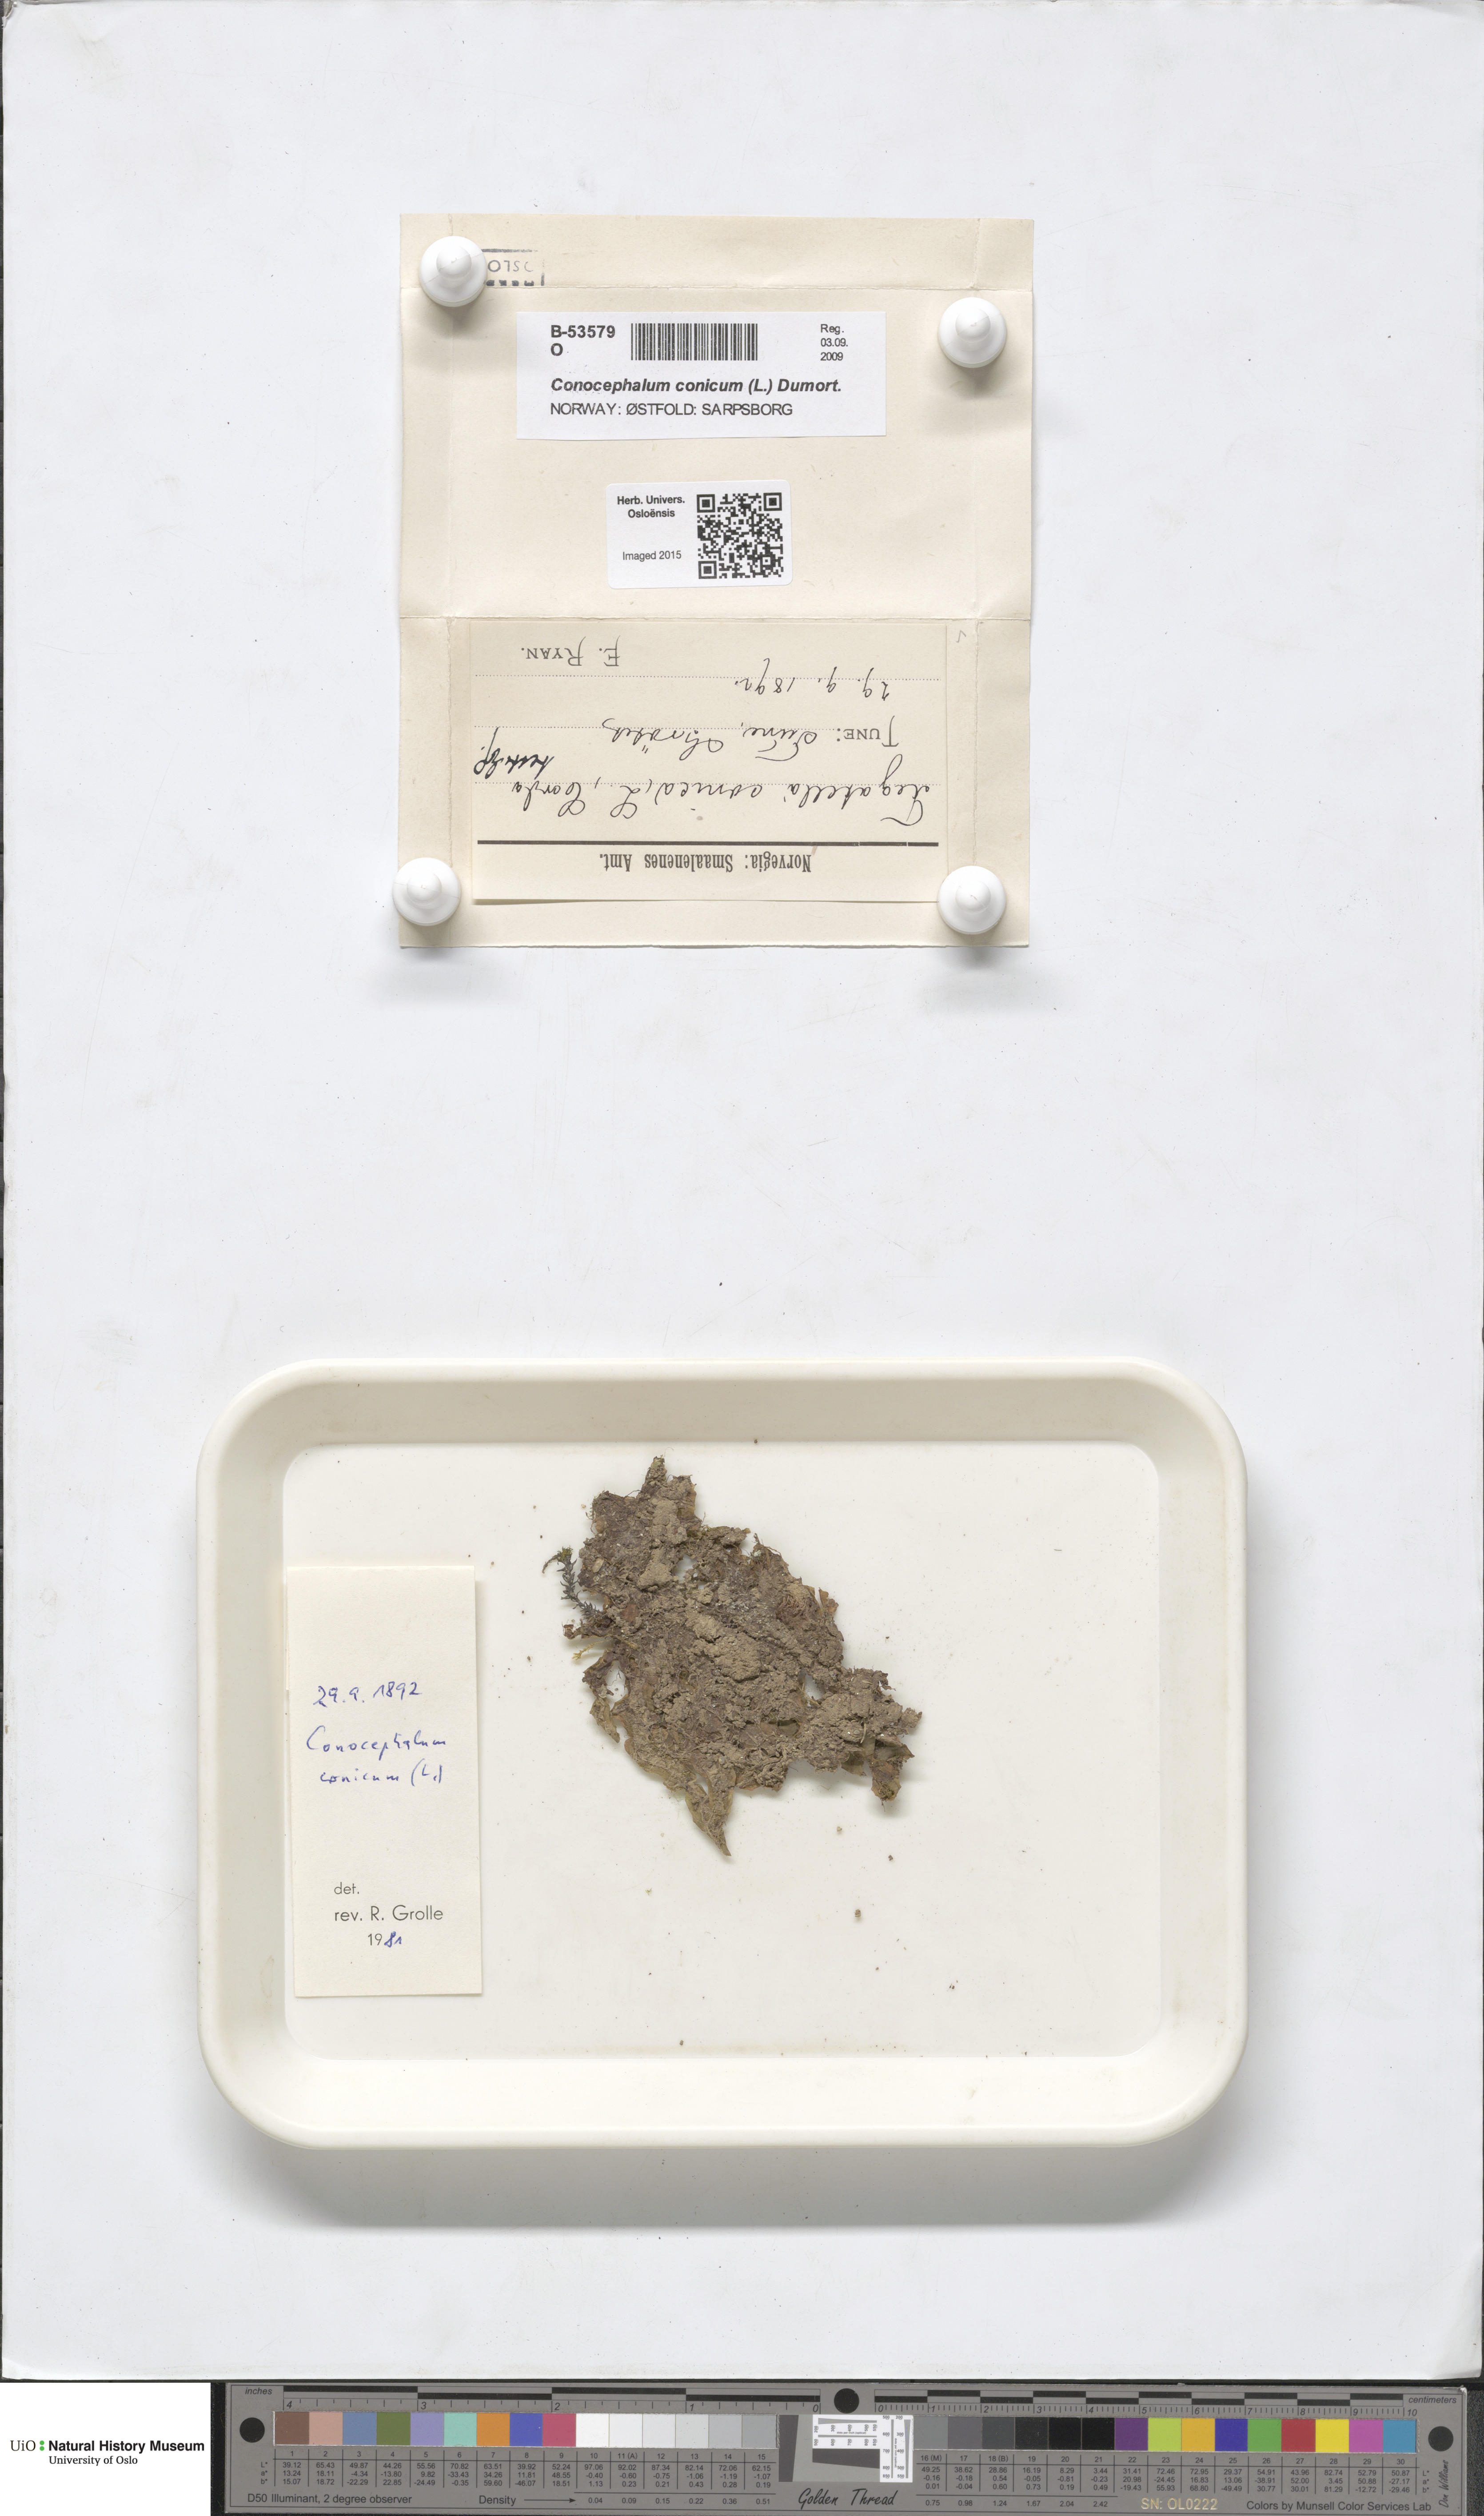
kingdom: Plantae
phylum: Marchantiophyta
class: Marchantiopsida
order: Marchantiales
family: Conocephalaceae
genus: Conocephalum
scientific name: Conocephalum conicum
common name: Great scented liverwort
